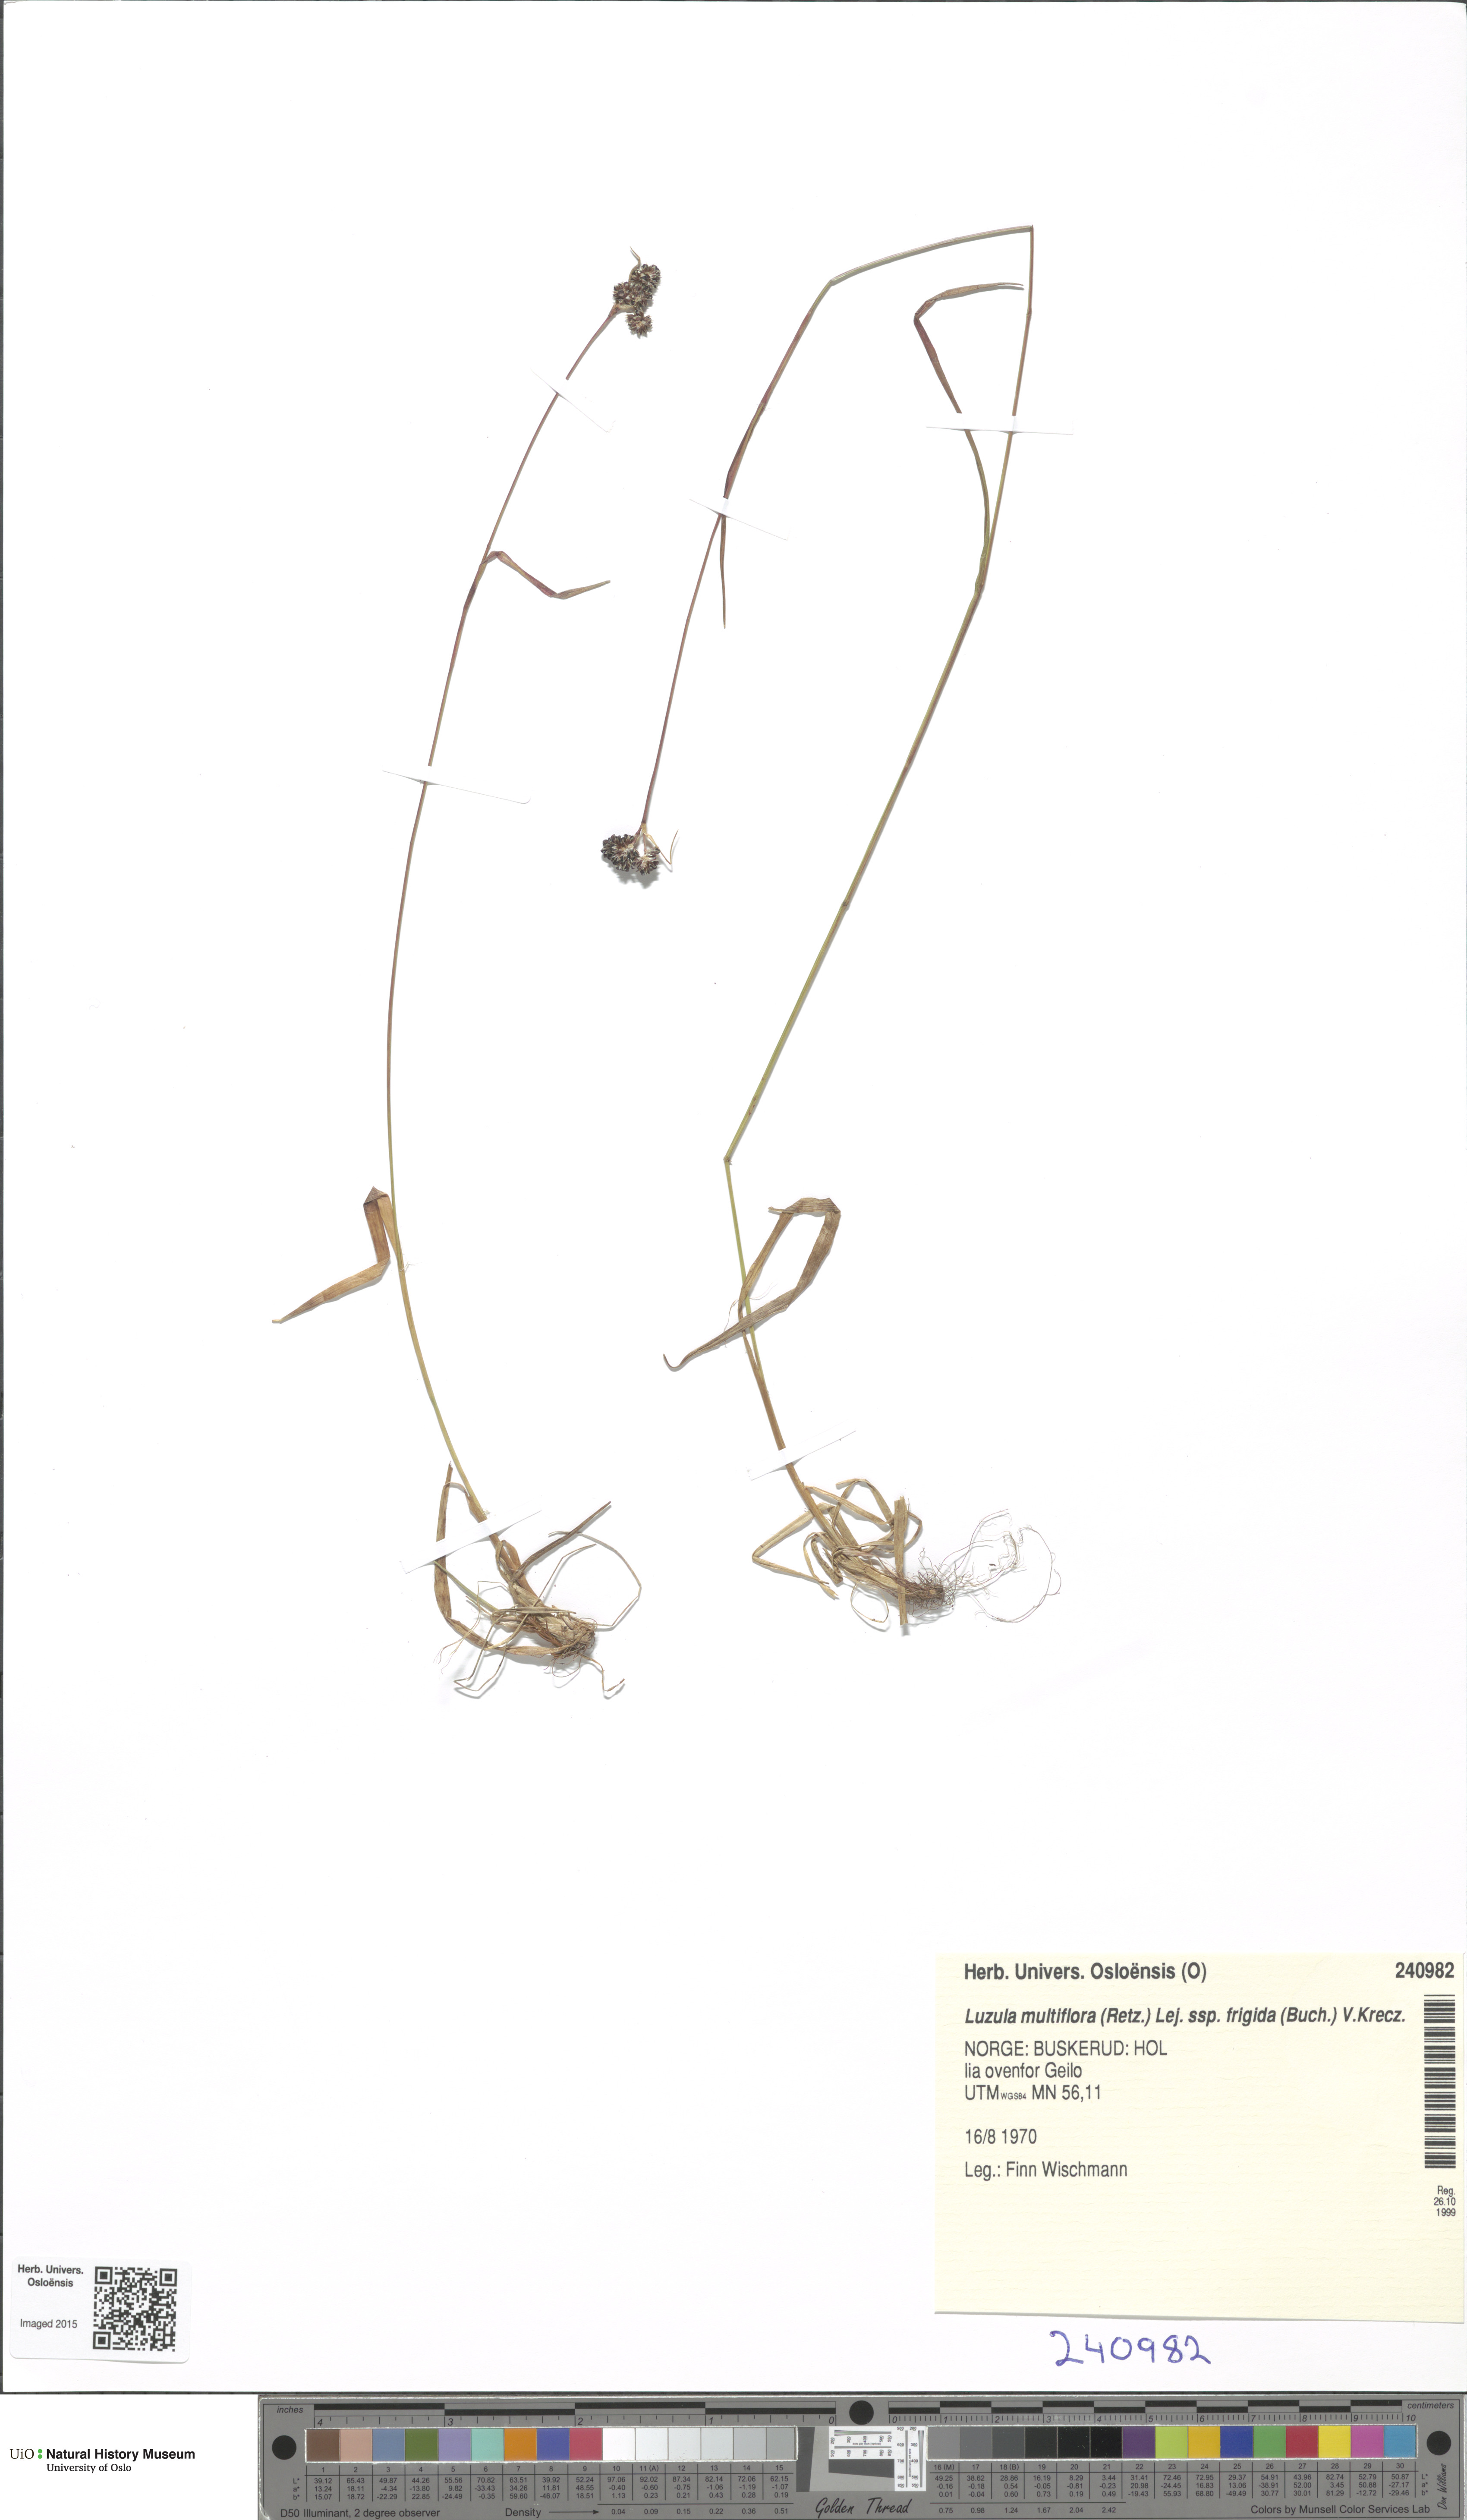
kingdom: Plantae
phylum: Tracheophyta
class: Liliopsida
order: Poales
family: Juncaceae
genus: Luzula
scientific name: Luzula multiflora
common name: Heath wood-rush
